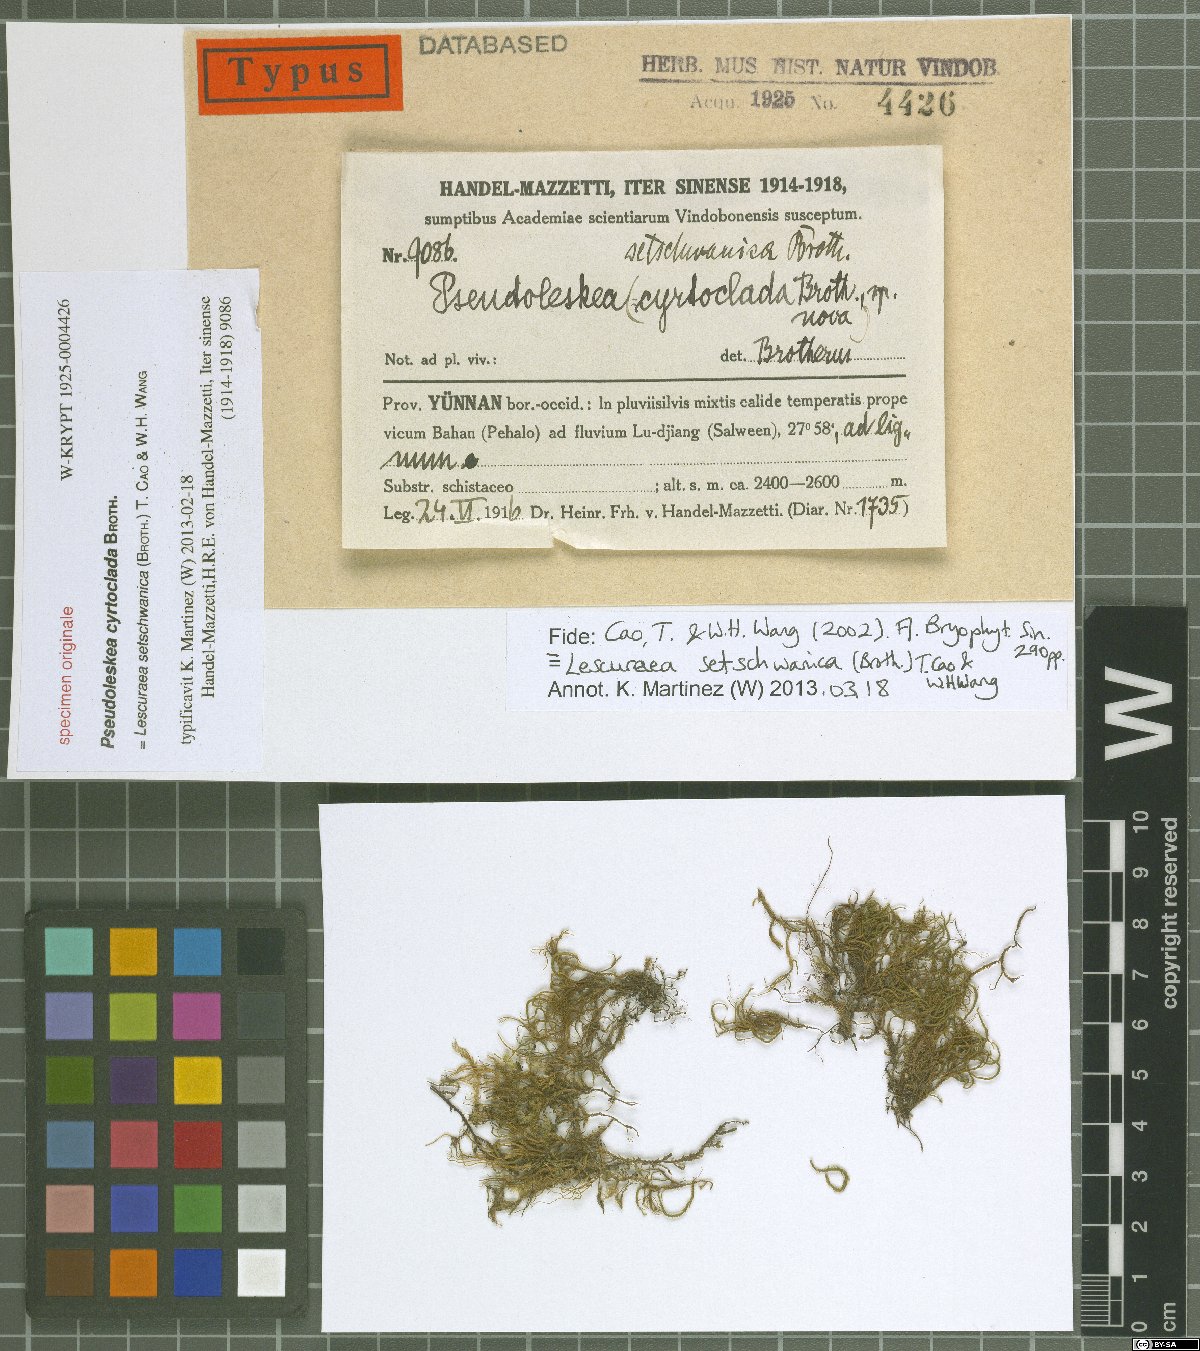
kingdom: Plantae
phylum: Bryophyta
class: Bryopsida
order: Hypnales
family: Pseudoleskeaceae
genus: Lescuraea
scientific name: Lescuraea setschwanica
